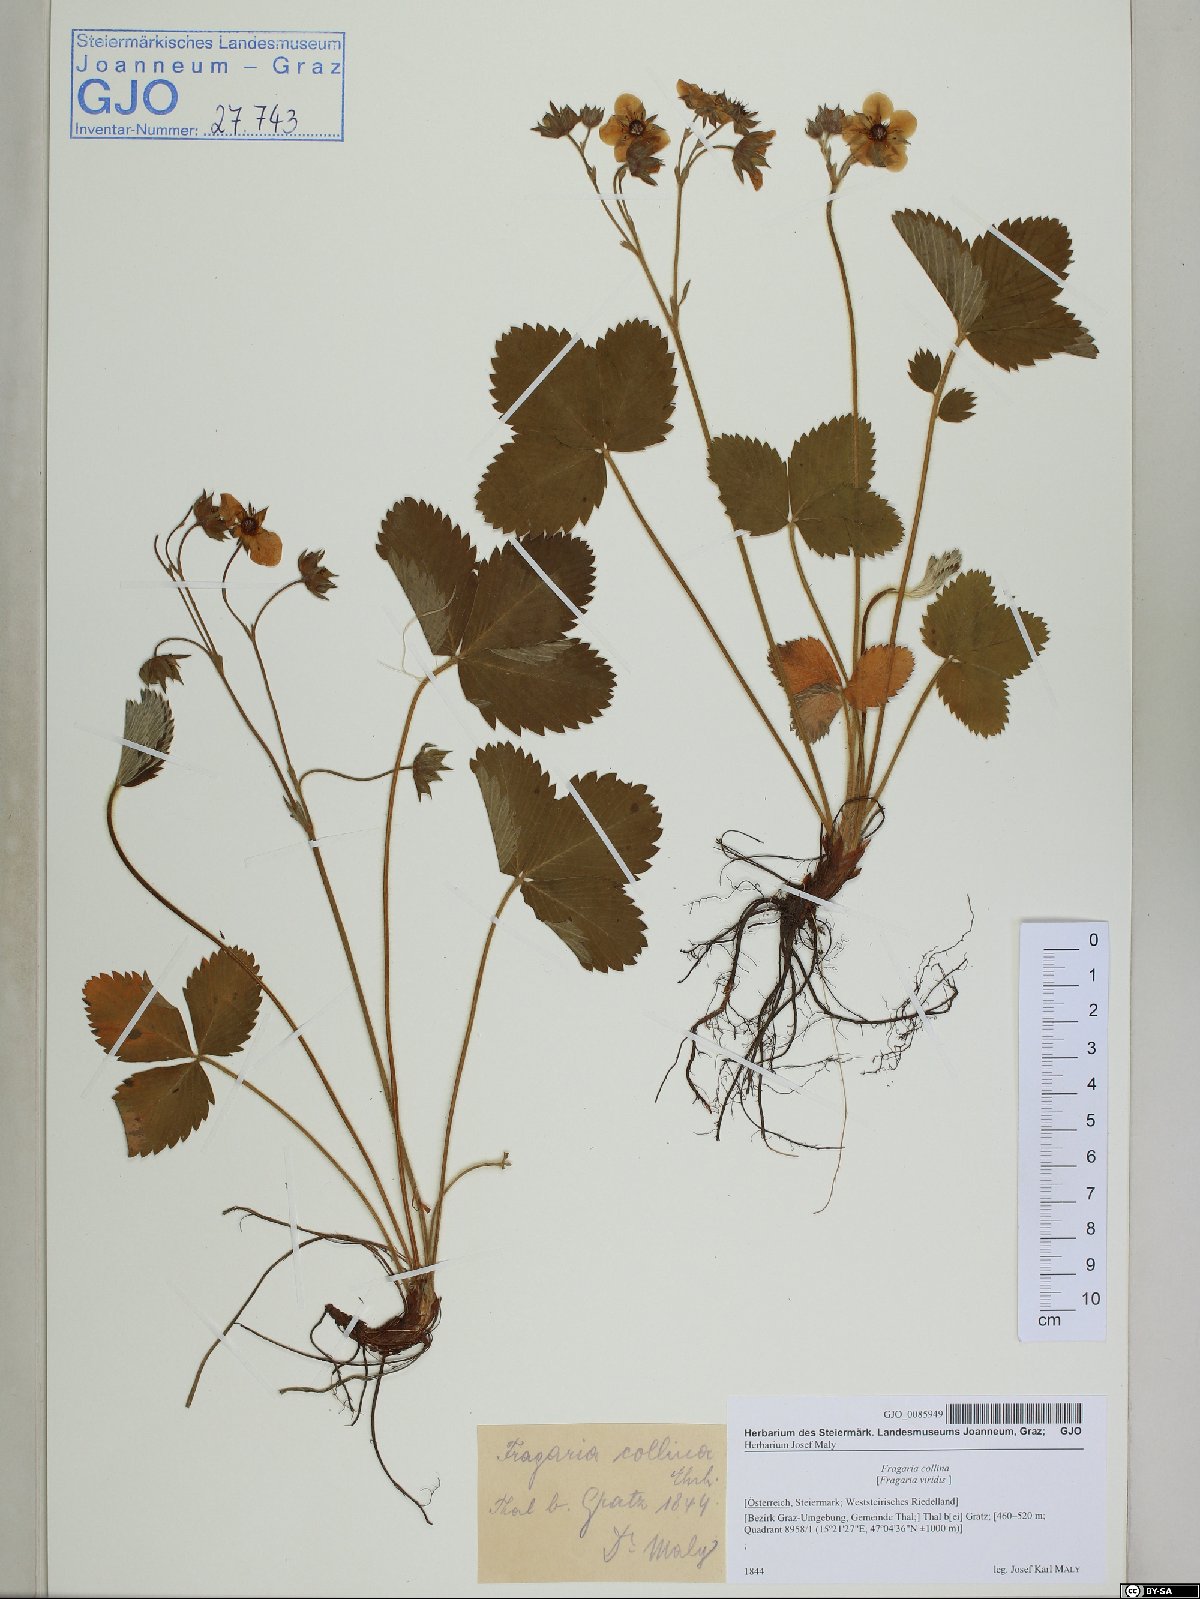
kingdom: Plantae
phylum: Tracheophyta
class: Magnoliopsida
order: Rosales
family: Rosaceae
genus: Fragaria
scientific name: Fragaria viridis
